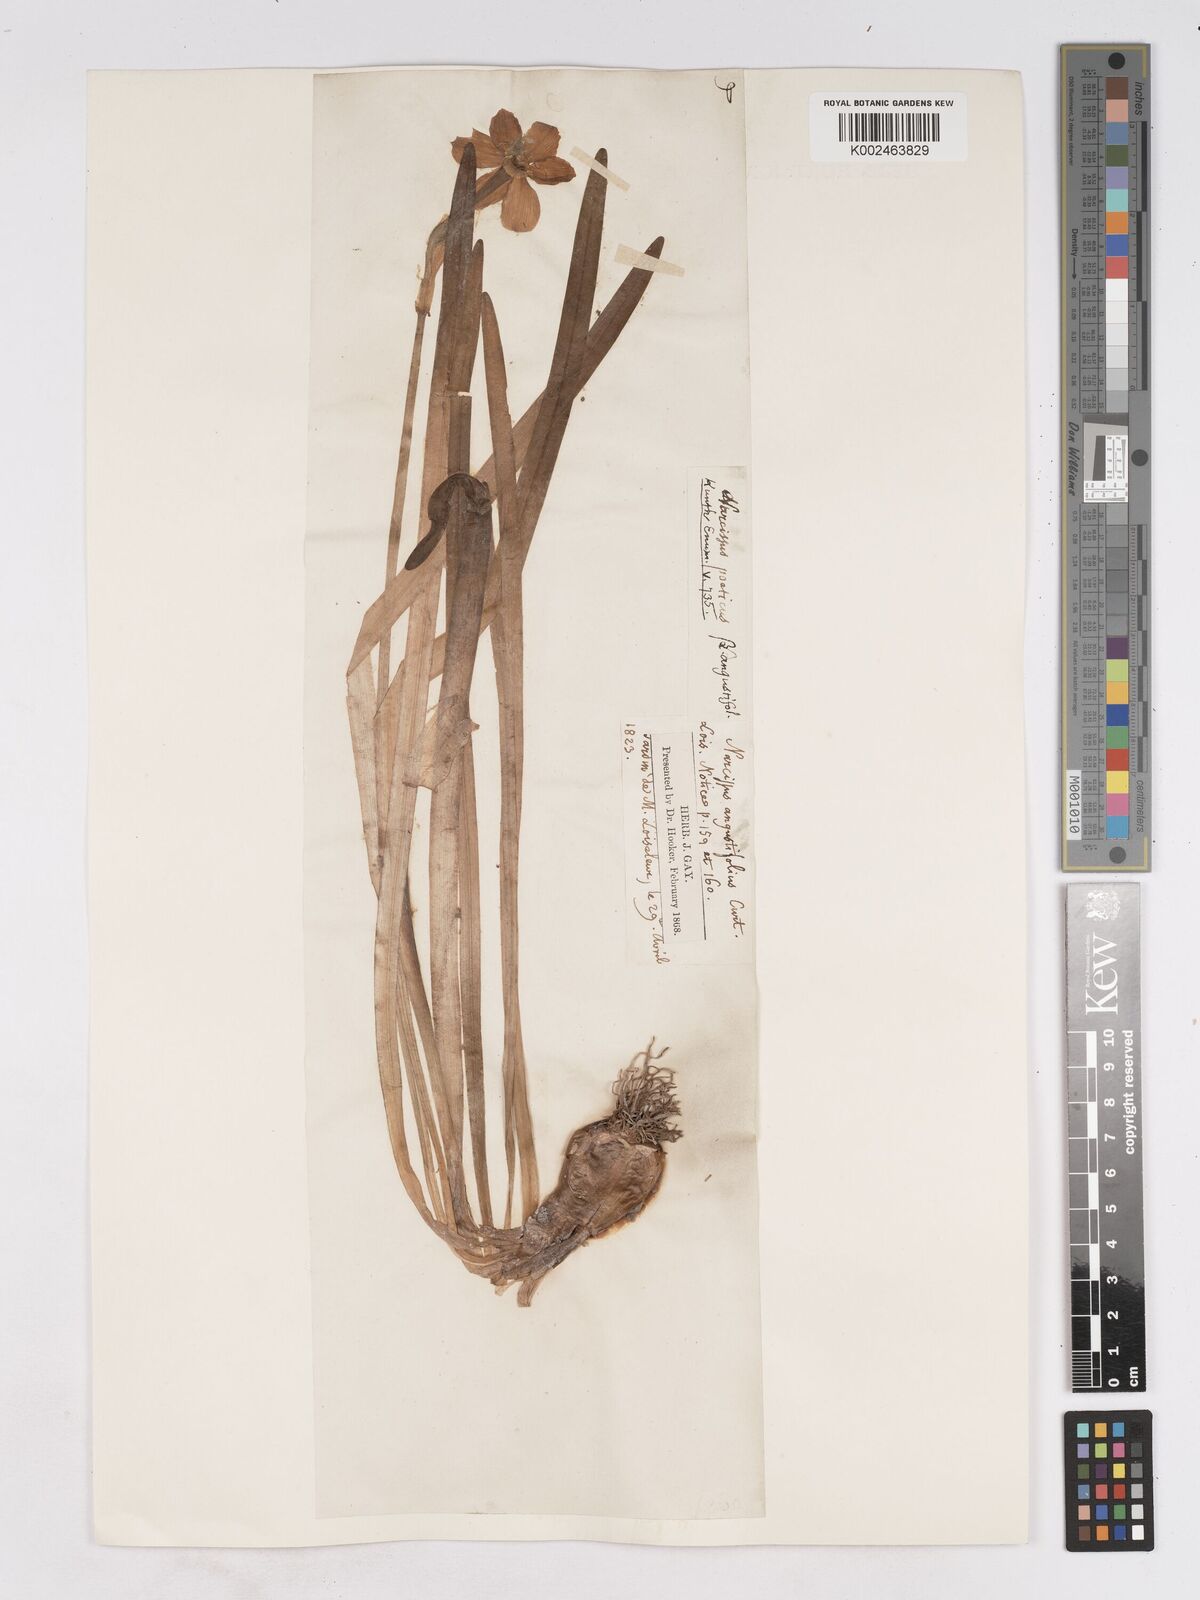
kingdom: Plantae
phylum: Tracheophyta
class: Liliopsida
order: Asparagales
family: Amaryllidaceae
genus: Narcissus
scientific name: Narcissus
